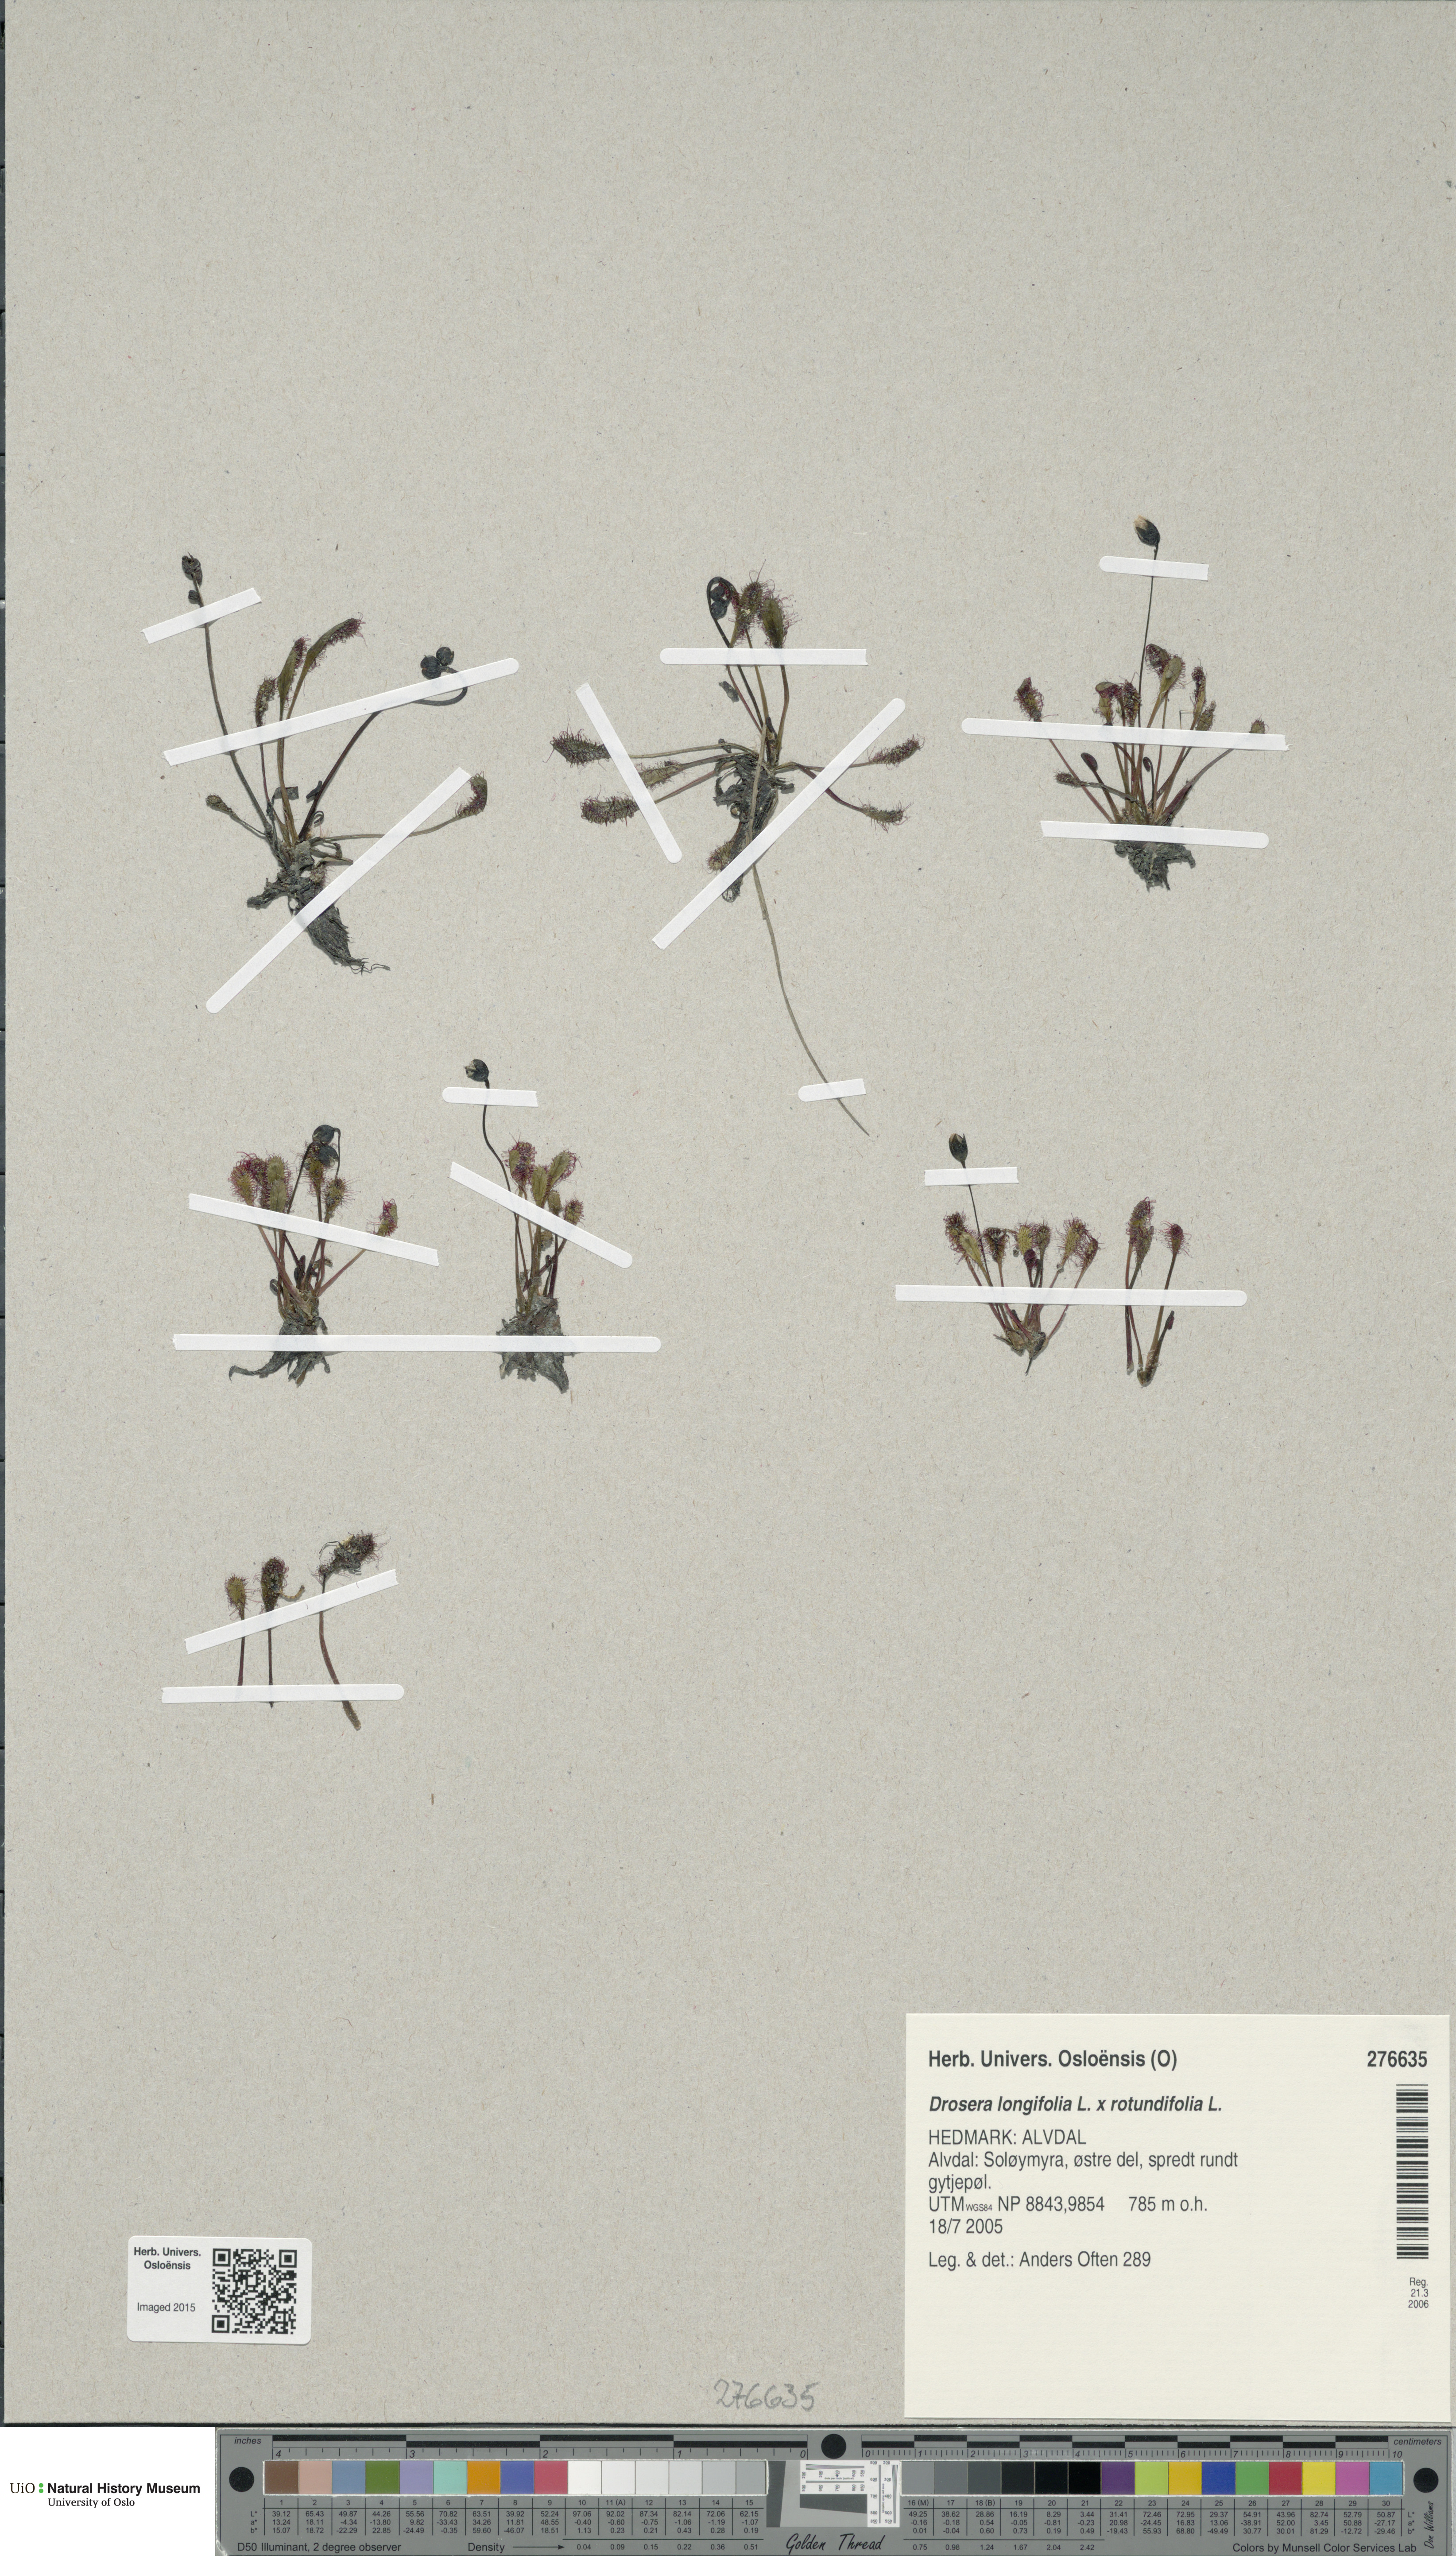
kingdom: Plantae
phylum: Tracheophyta
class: Magnoliopsida
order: Caryophyllales
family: Droseraceae
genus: Drosera
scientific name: Drosera
